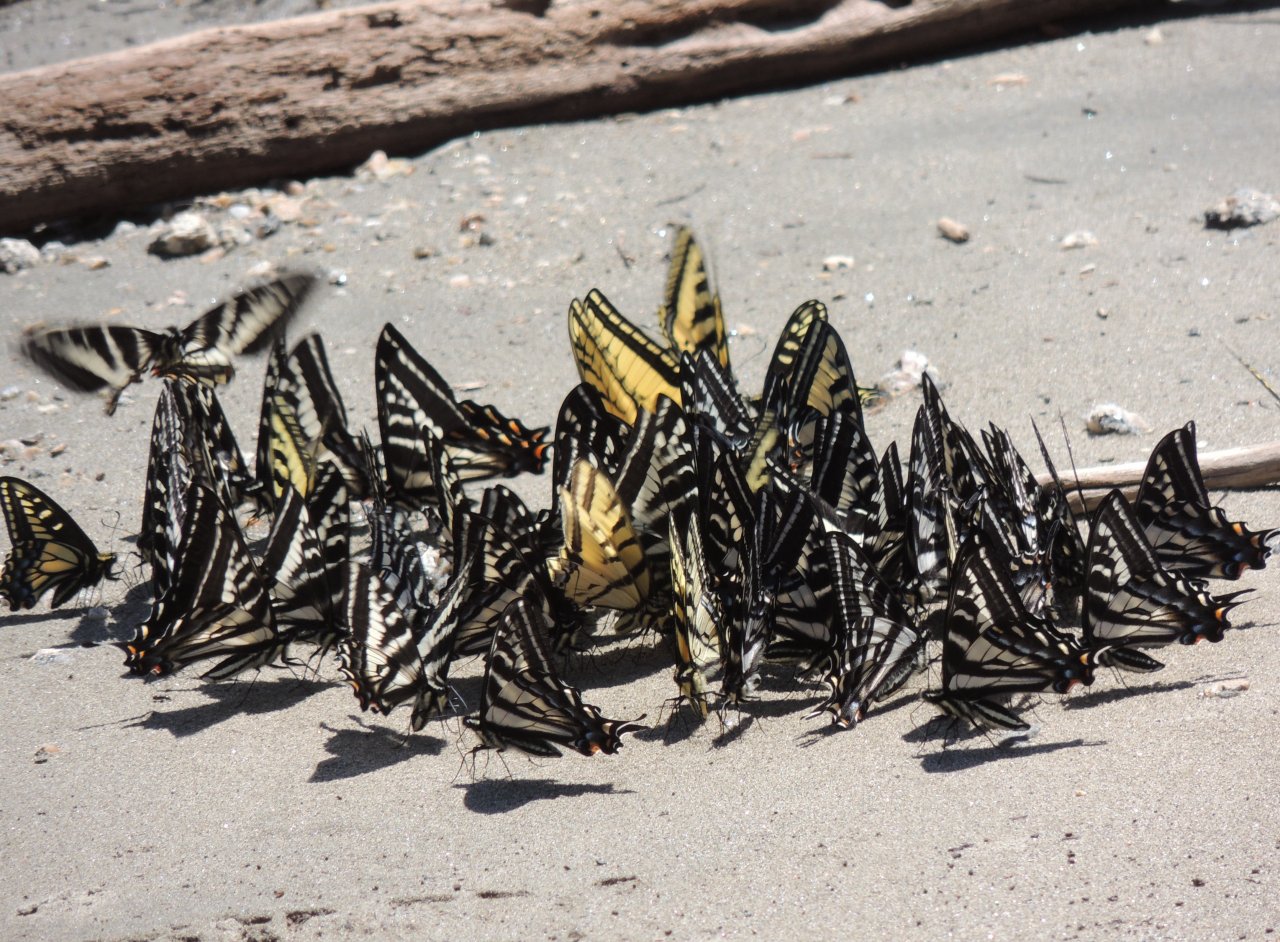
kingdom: Animalia
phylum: Arthropoda
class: Insecta
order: Lepidoptera
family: Papilionidae
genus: Pterourus
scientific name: Pterourus eurymedon
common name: Pale Swallowtail
